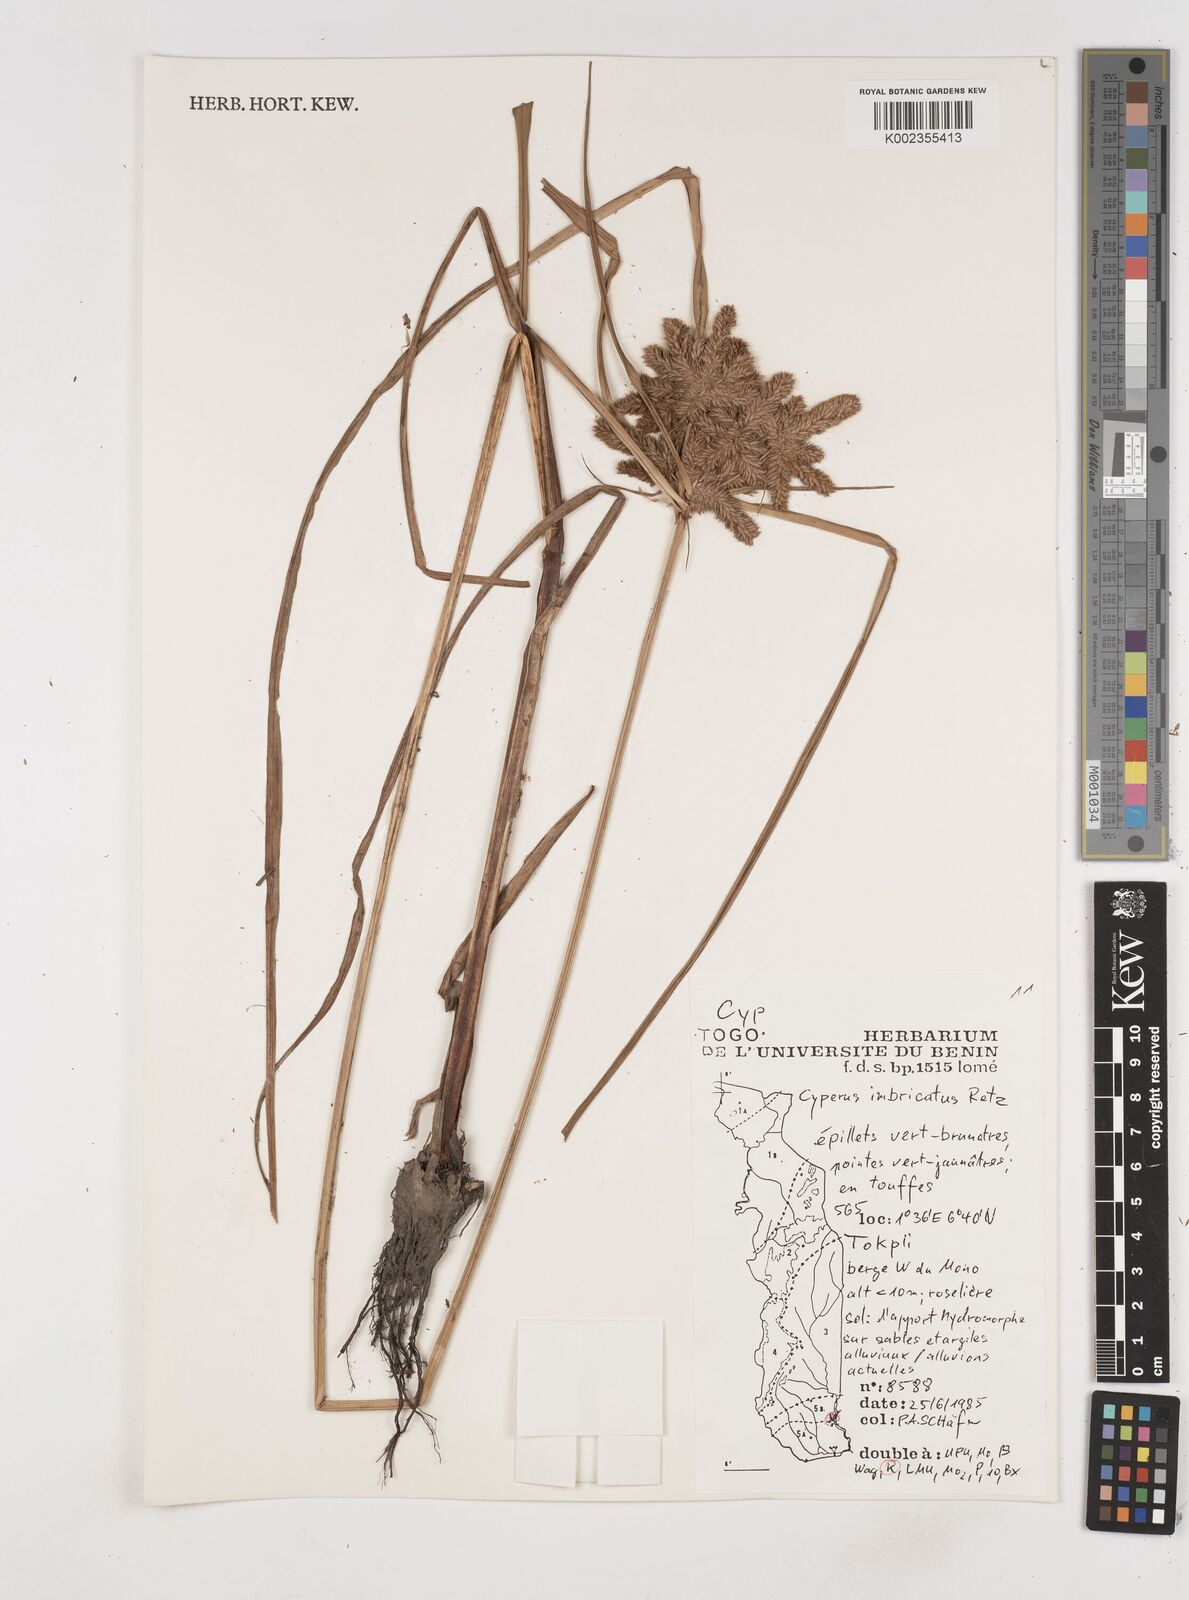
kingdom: Plantae
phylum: Tracheophyta
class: Liliopsida
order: Poales
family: Cyperaceae
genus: Cyperus
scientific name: Cyperus imbricatus
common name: Shingle flatsedge
